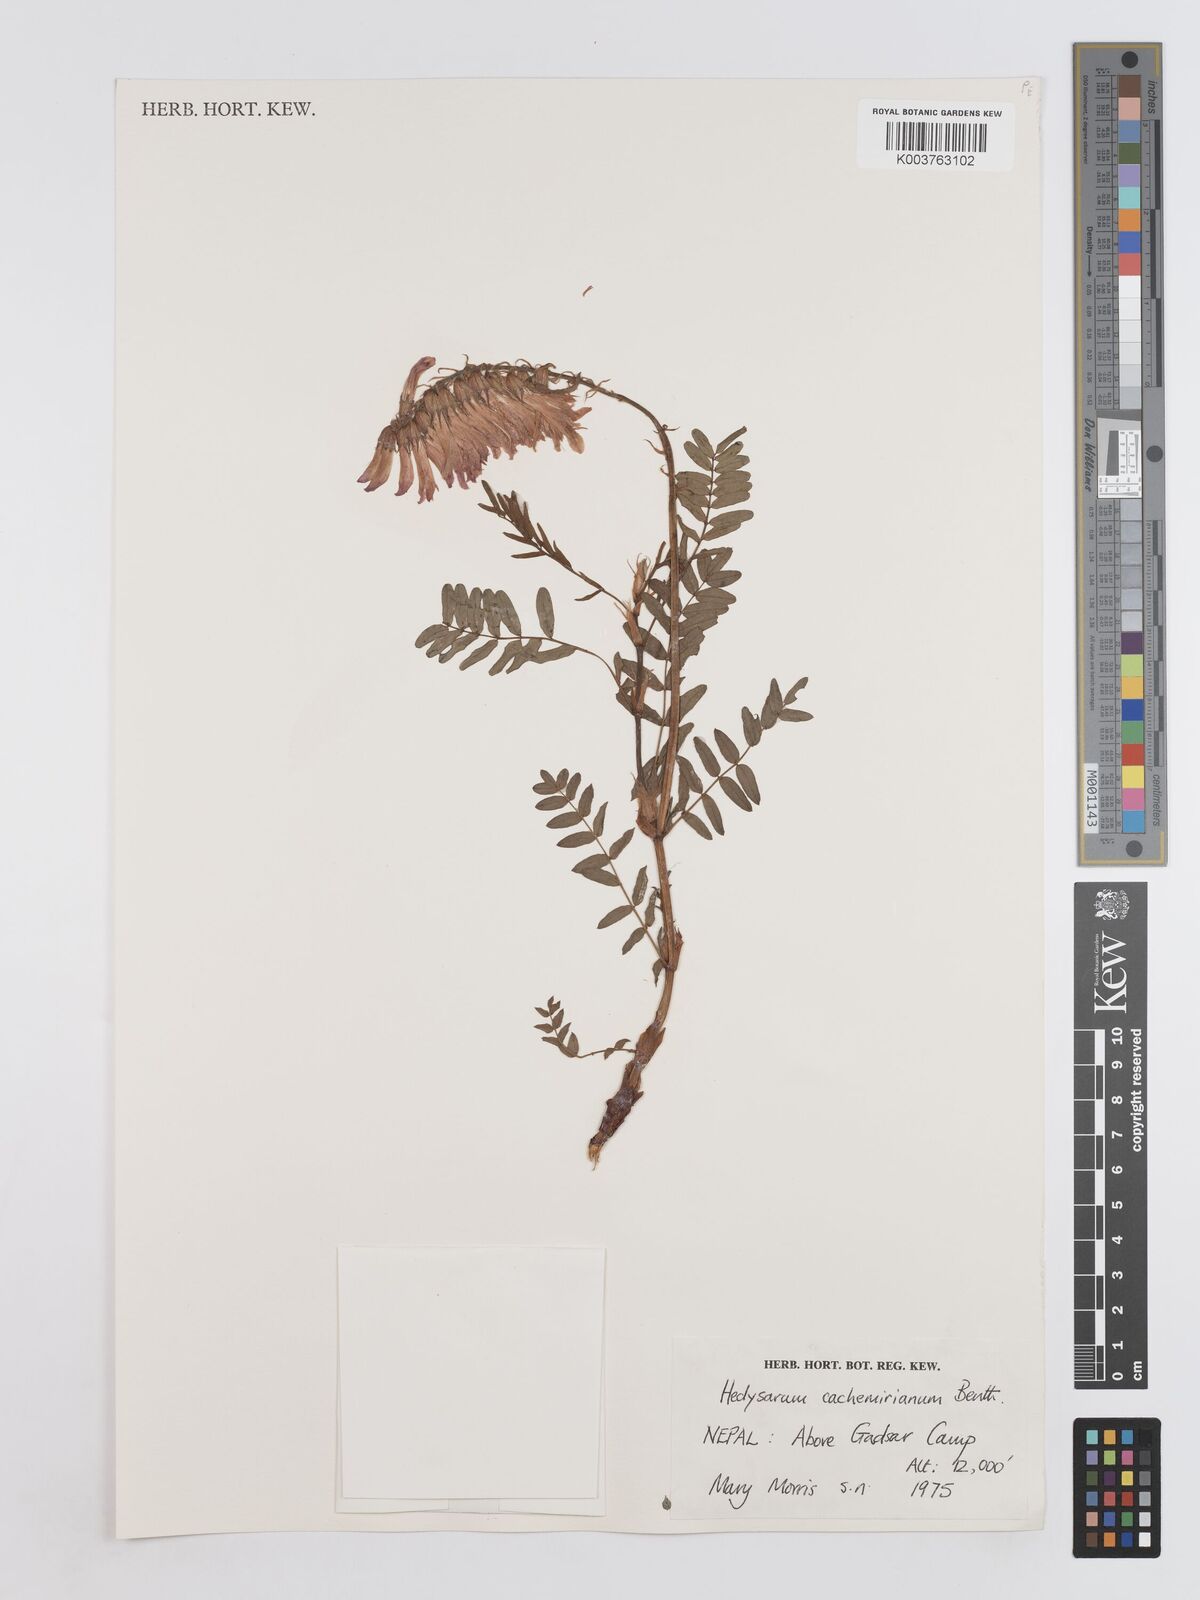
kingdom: Plantae
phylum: Tracheophyta
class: Magnoliopsida
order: Fabales
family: Fabaceae
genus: Hedysarum
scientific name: Hedysarum cachemirianum
